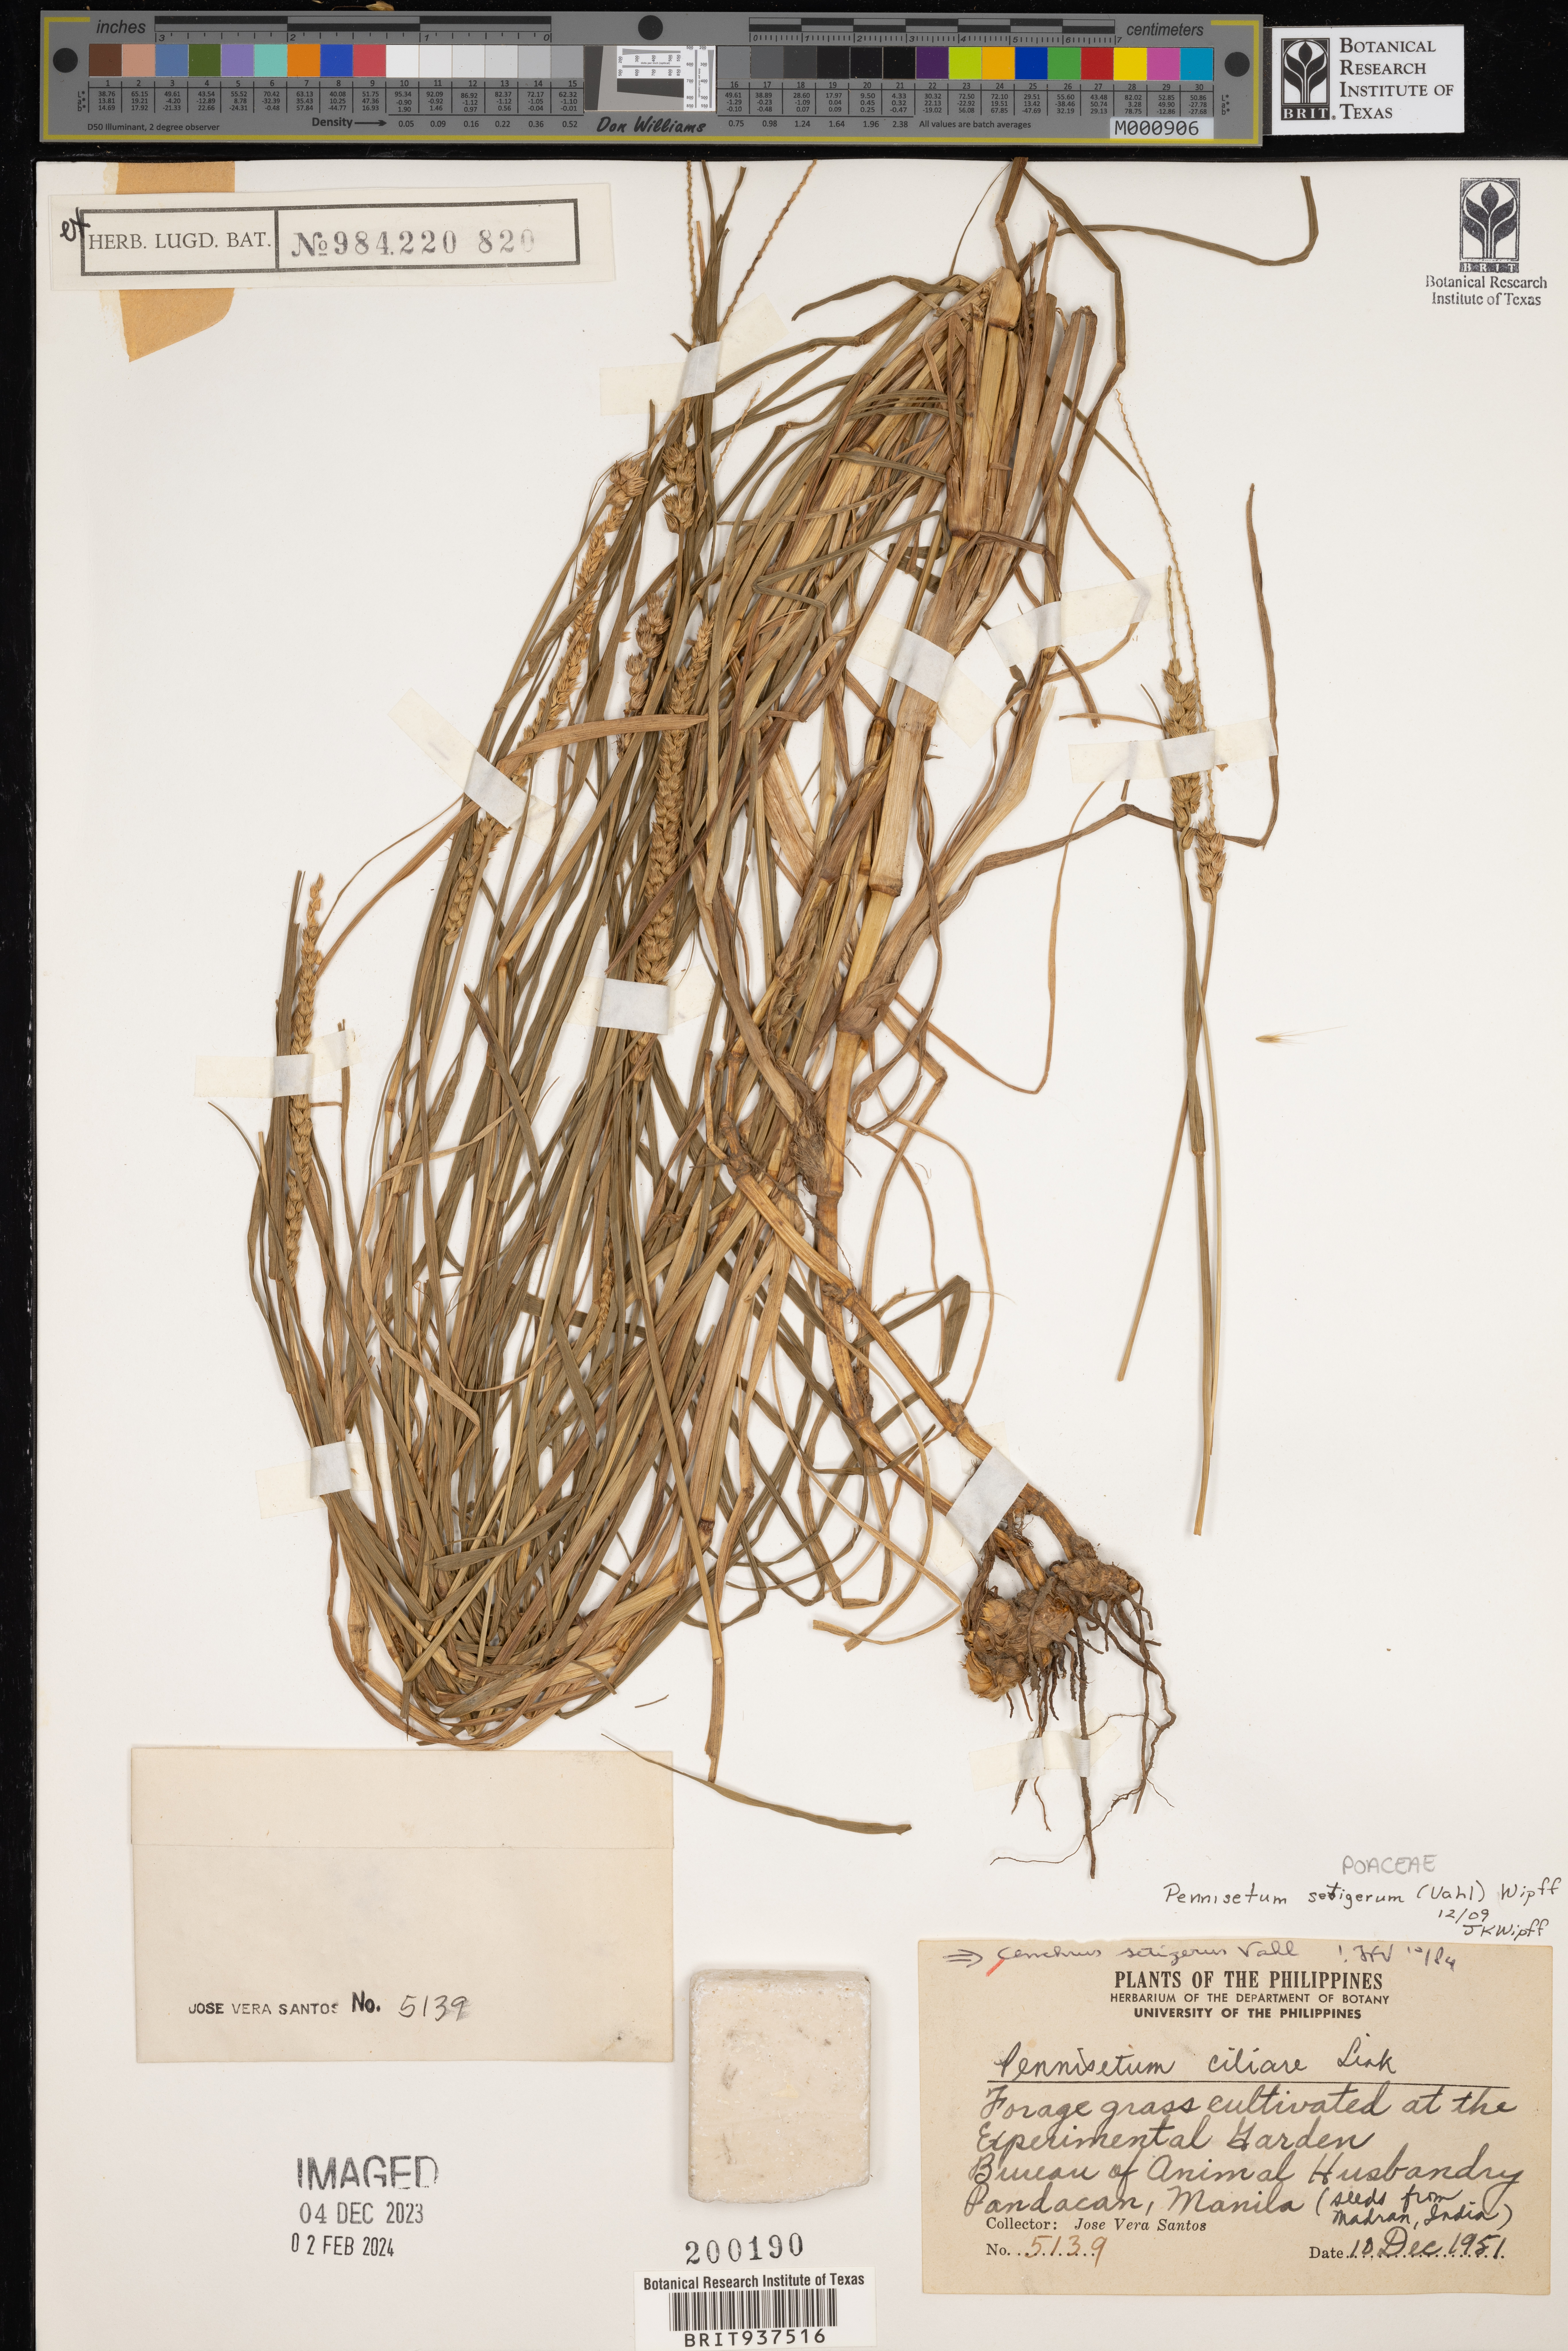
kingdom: Plantae
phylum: Tracheophyta
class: Liliopsida
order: Poales
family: Poaceae
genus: Cenchrus
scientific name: Cenchrus Pennisetum spec
